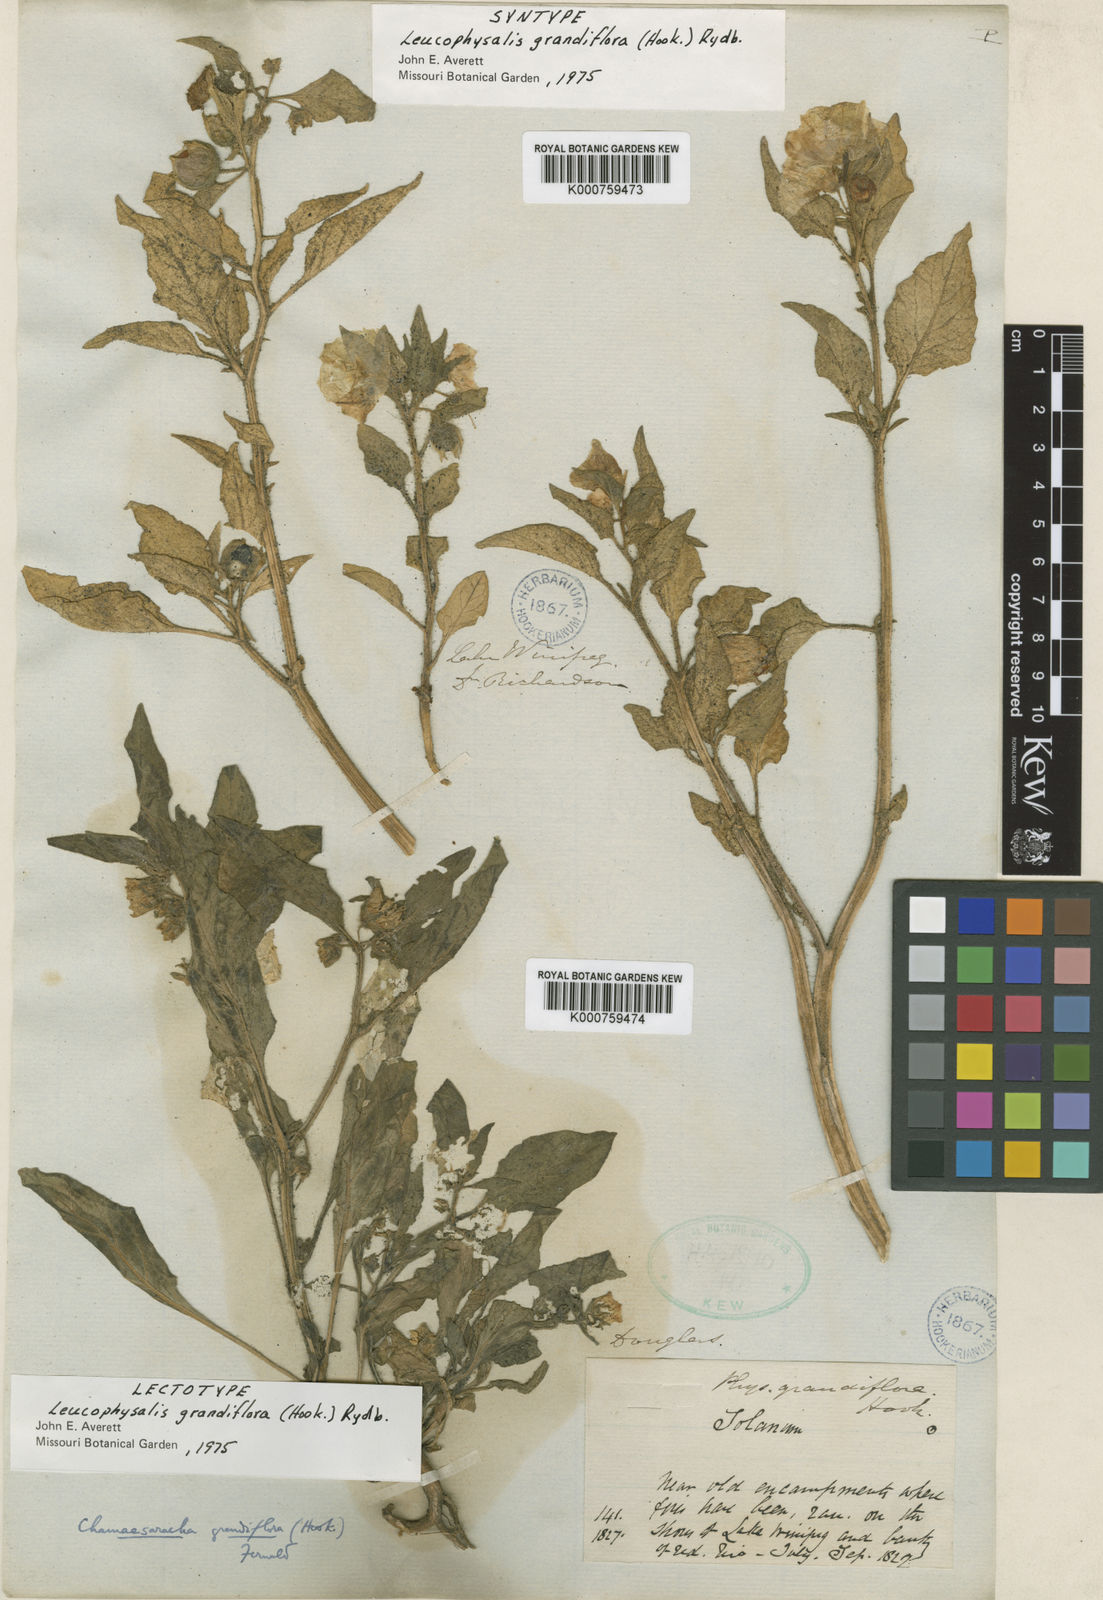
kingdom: Plantae
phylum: Tracheophyta
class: Magnoliopsida
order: Solanales
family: Solanaceae
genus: Leucophysalis
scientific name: Leucophysalis grandiflora
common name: Large false ground-cherry
